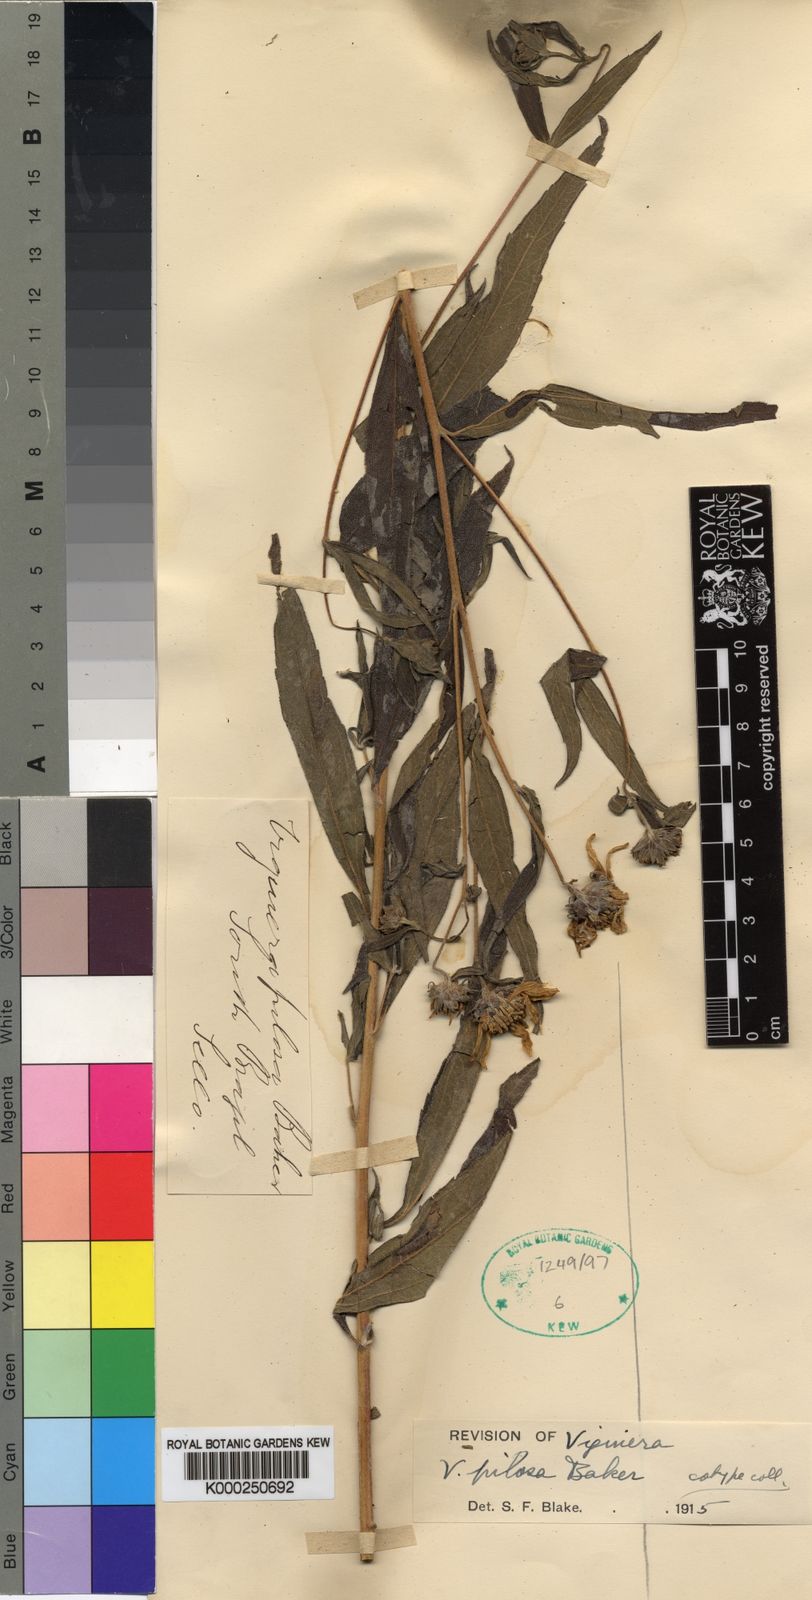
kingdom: Plantae
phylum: Tracheophyta
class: Magnoliopsida
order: Asterales
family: Asteraceae
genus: Aldama
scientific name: Aldama pilosa
